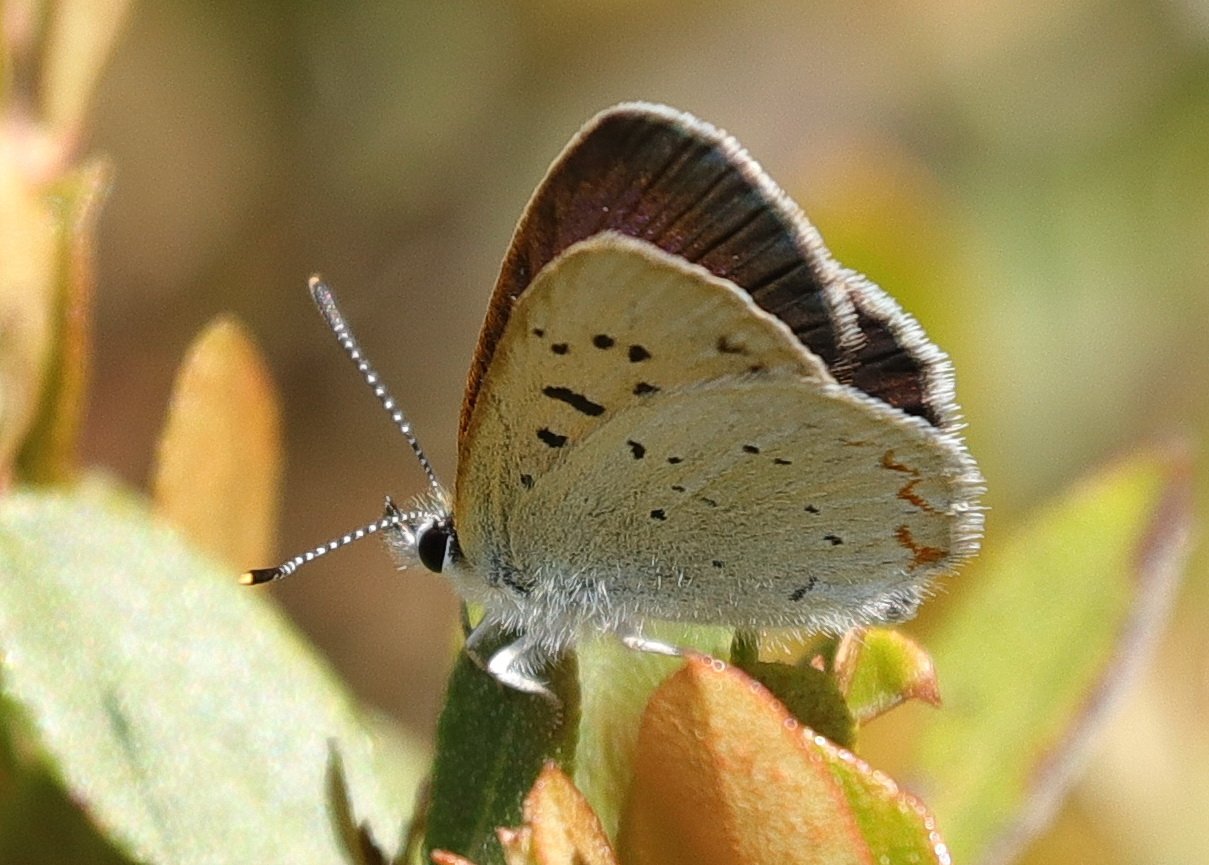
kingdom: Animalia
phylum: Arthropoda
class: Insecta
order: Lepidoptera
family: Sesiidae
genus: Sesia
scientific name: Sesia Lycaena epixanthe
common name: Bog Copper
